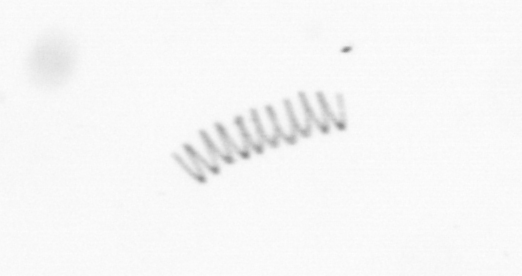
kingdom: Chromista
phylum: Ochrophyta
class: Bacillariophyceae
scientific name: Bacillariophyceae
